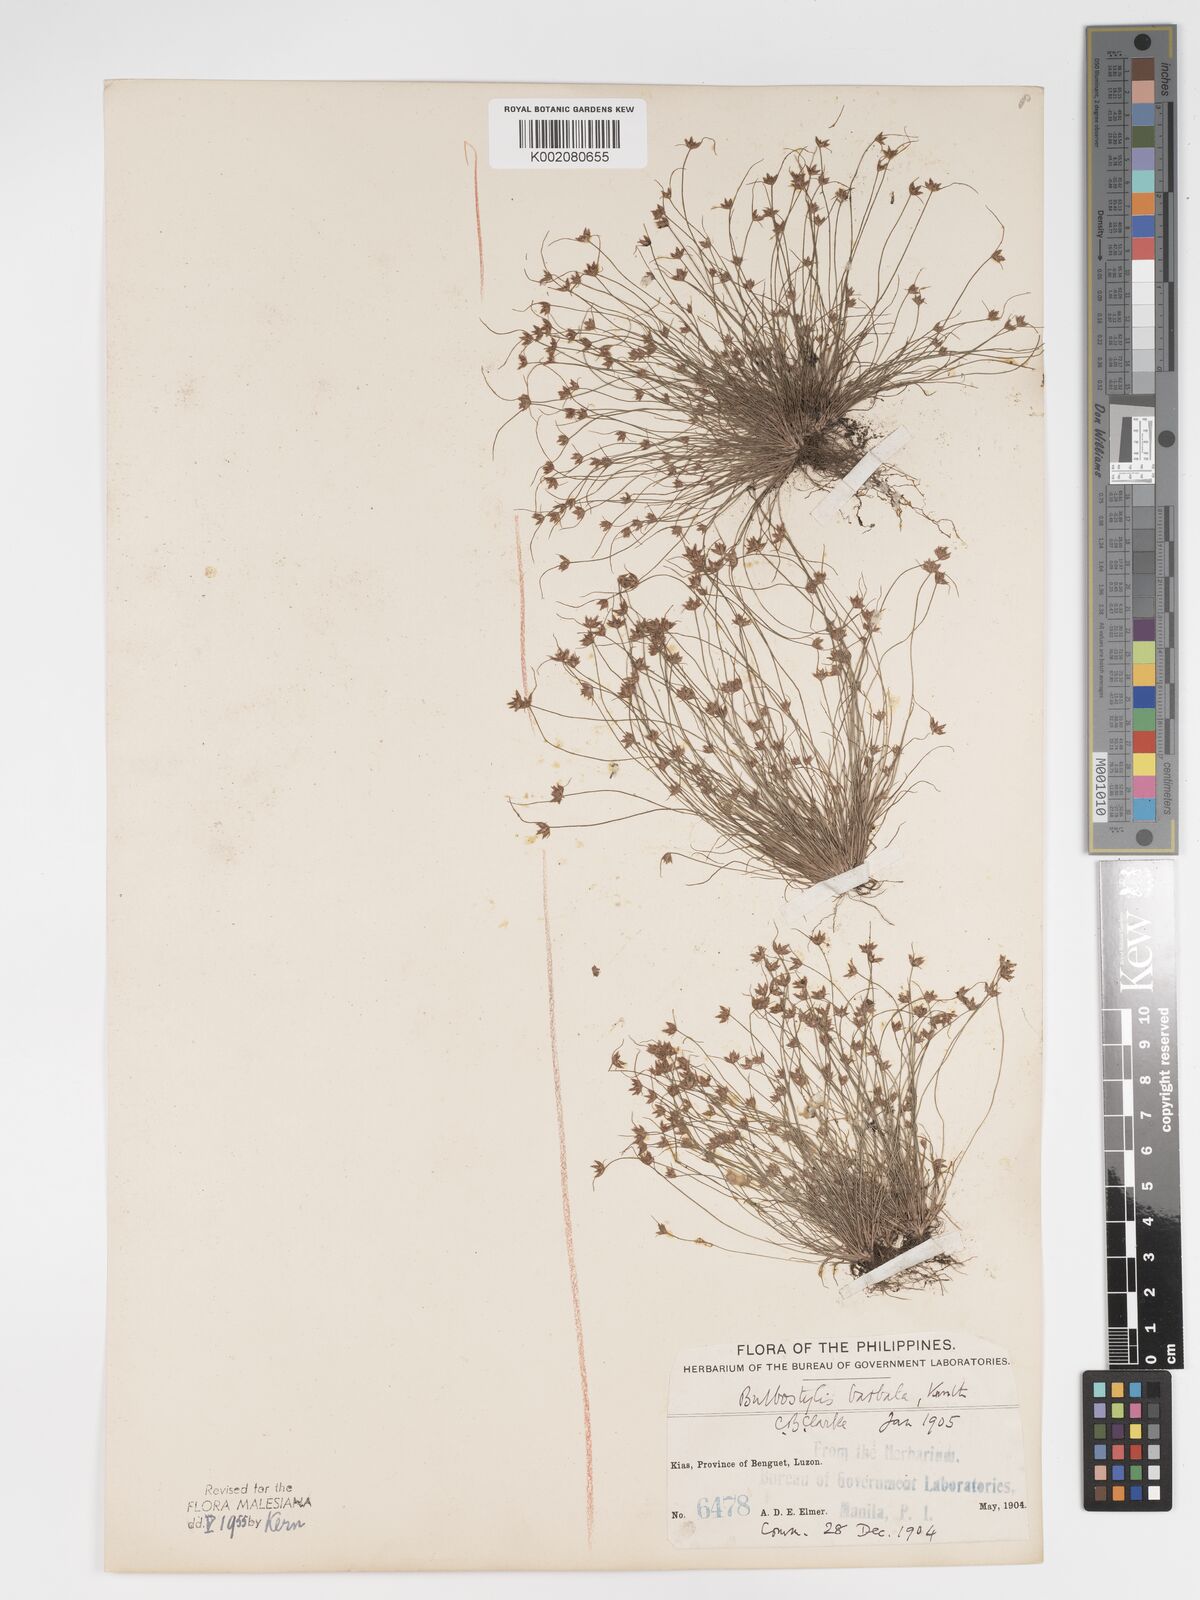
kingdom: Plantae
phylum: Tracheophyta
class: Liliopsida
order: Poales
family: Cyperaceae
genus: Bulbostylis
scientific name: Bulbostylis barbata
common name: Watergrass
